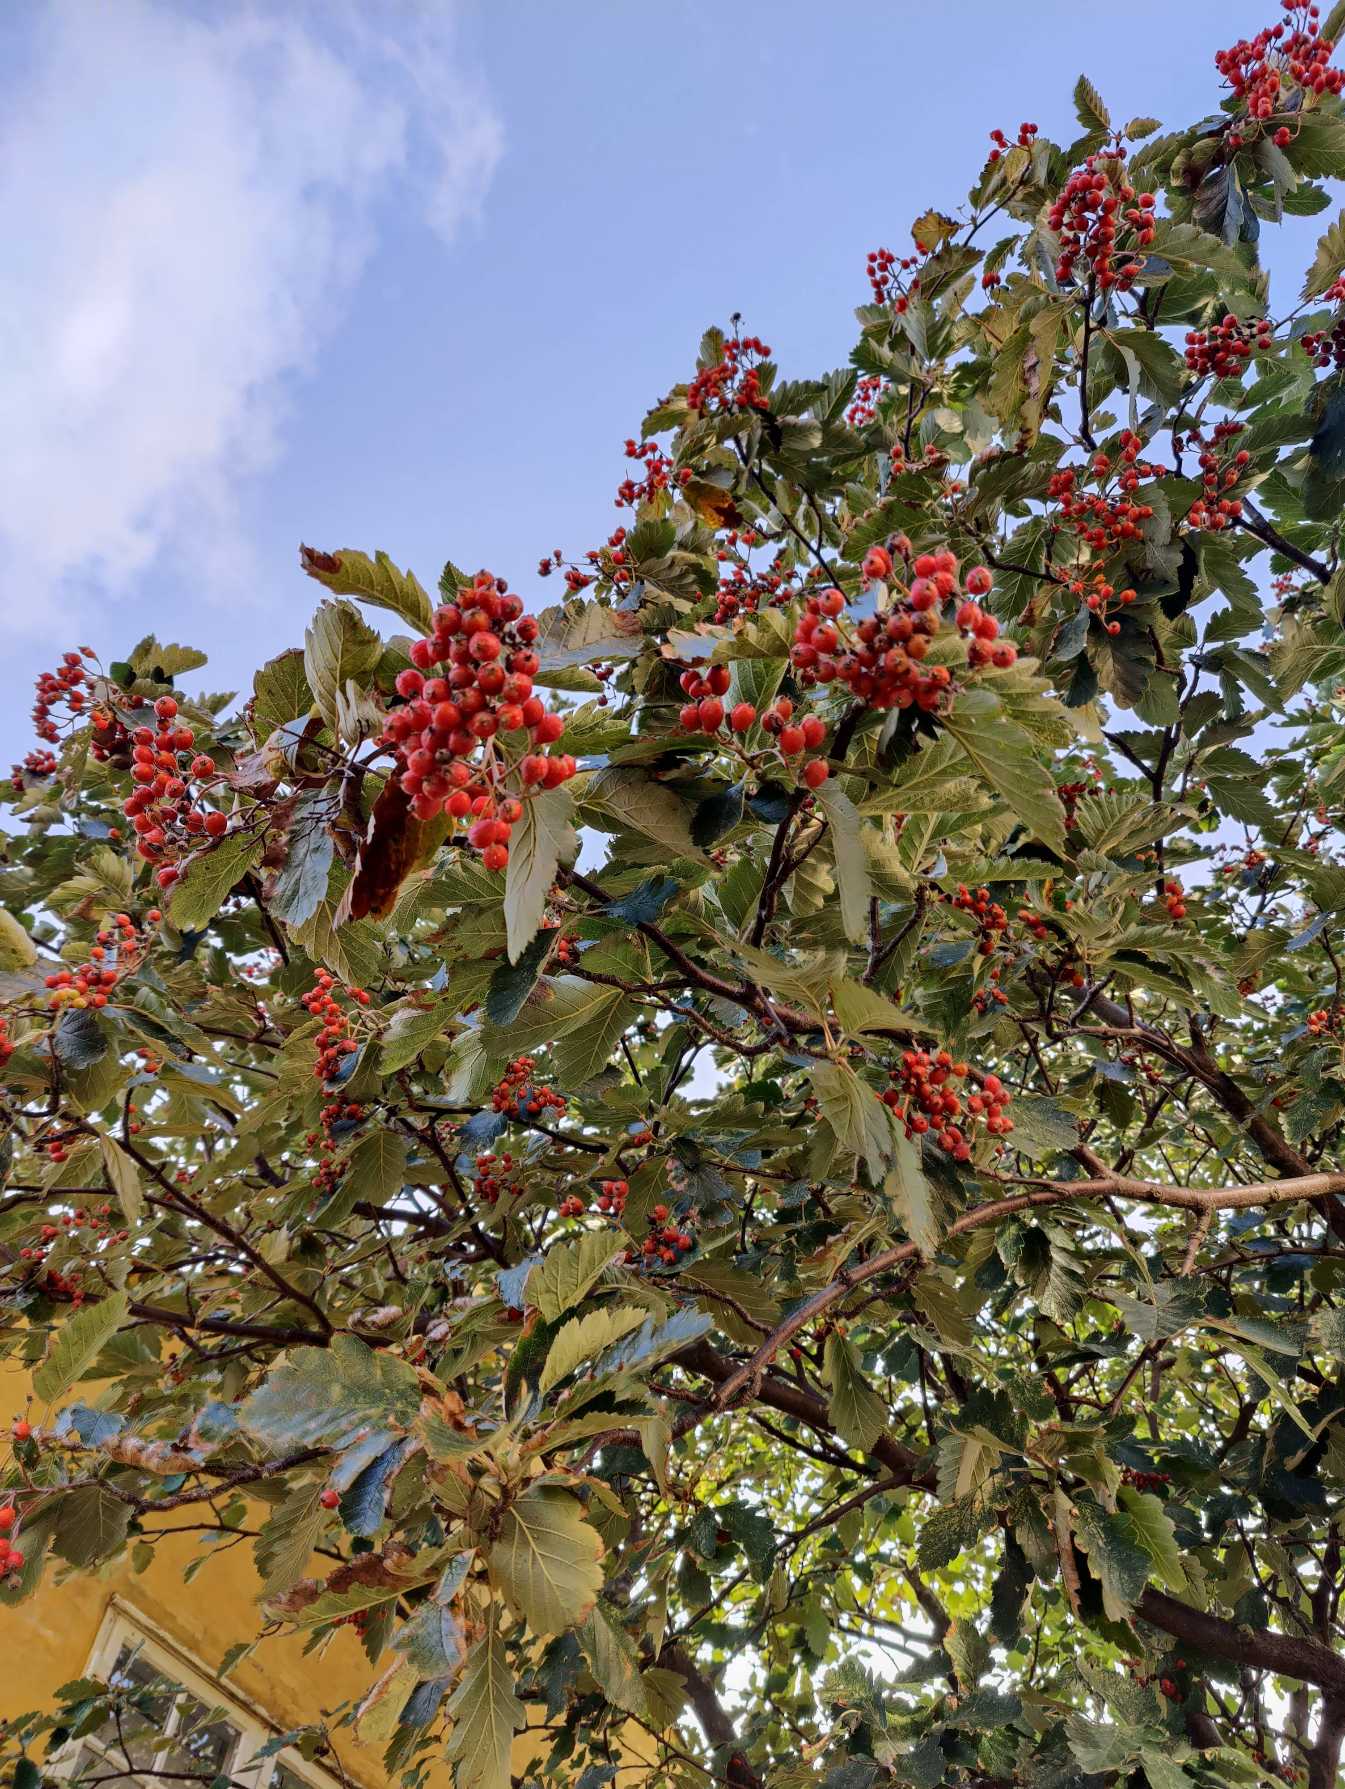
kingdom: Plantae
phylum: Tracheophyta
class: Magnoliopsida
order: Rosales
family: Rosaceae
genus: Scandosorbus
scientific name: Scandosorbus intermedia
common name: Selje-røn
